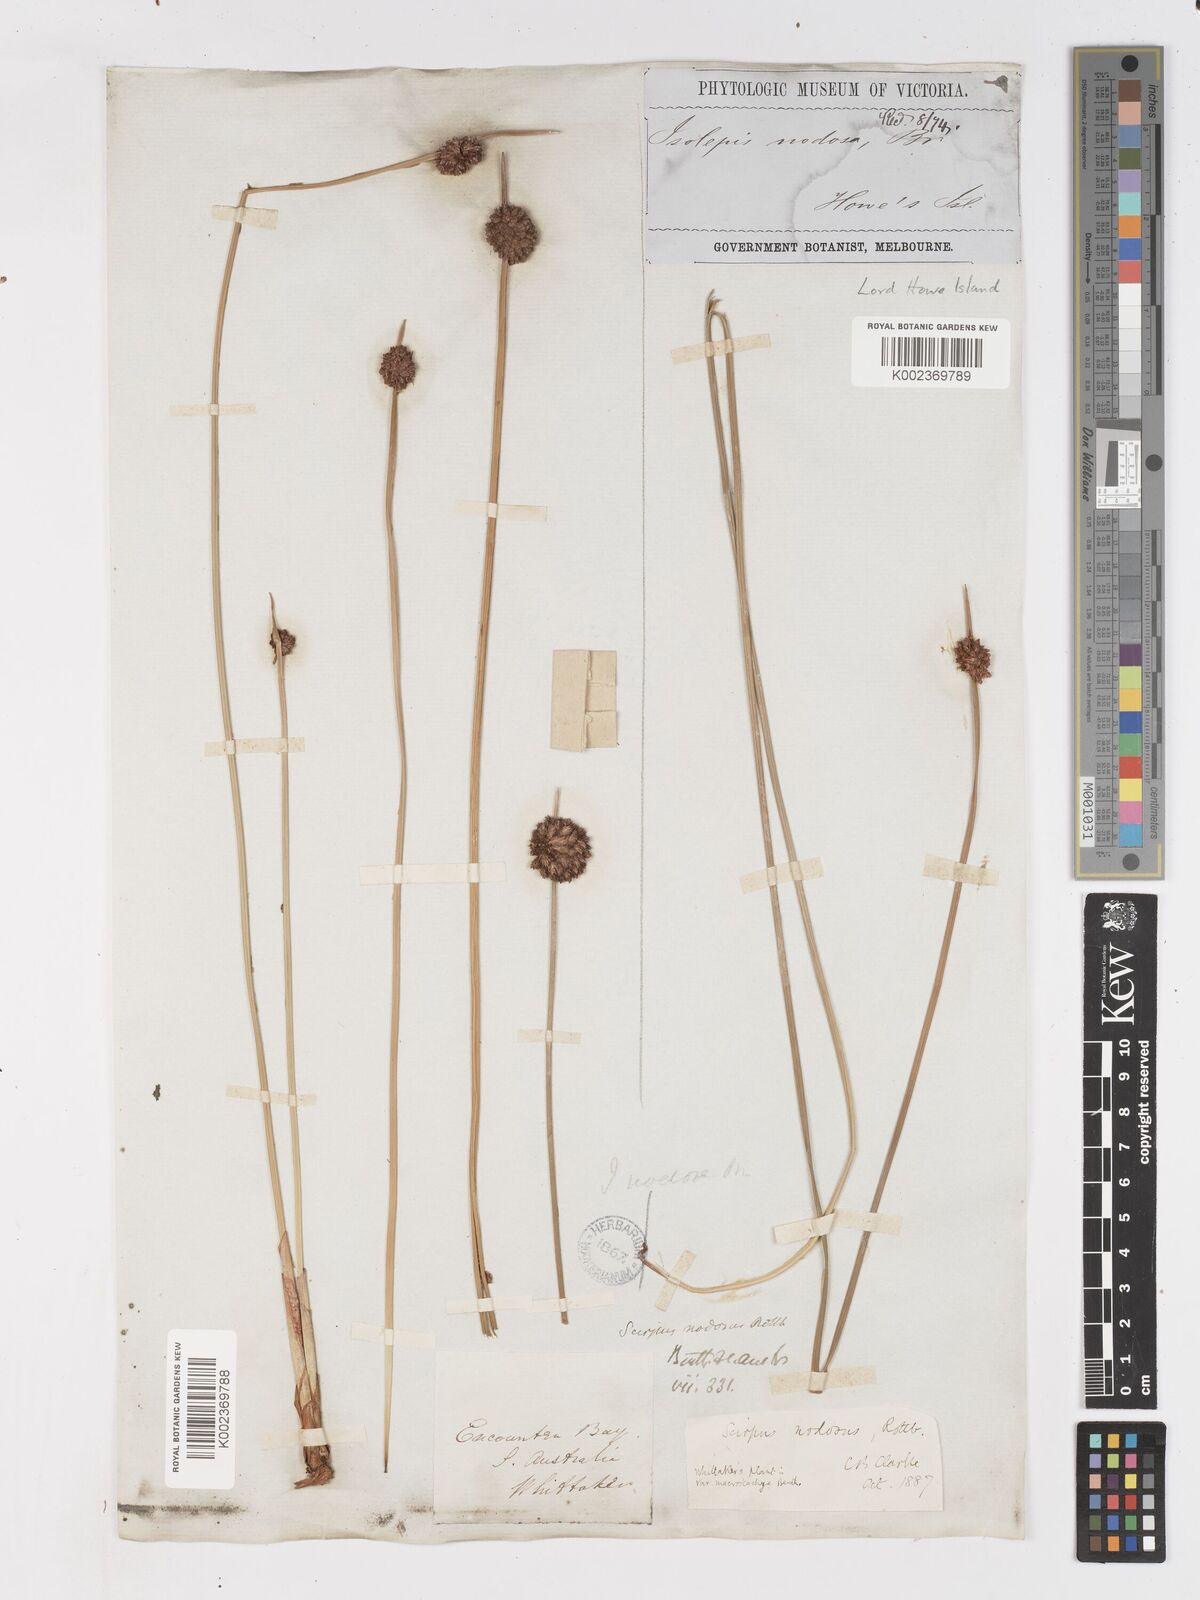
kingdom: Plantae
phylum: Tracheophyta
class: Liliopsida
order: Poales
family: Cyperaceae
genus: Ficinia
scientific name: Ficinia nodosa
